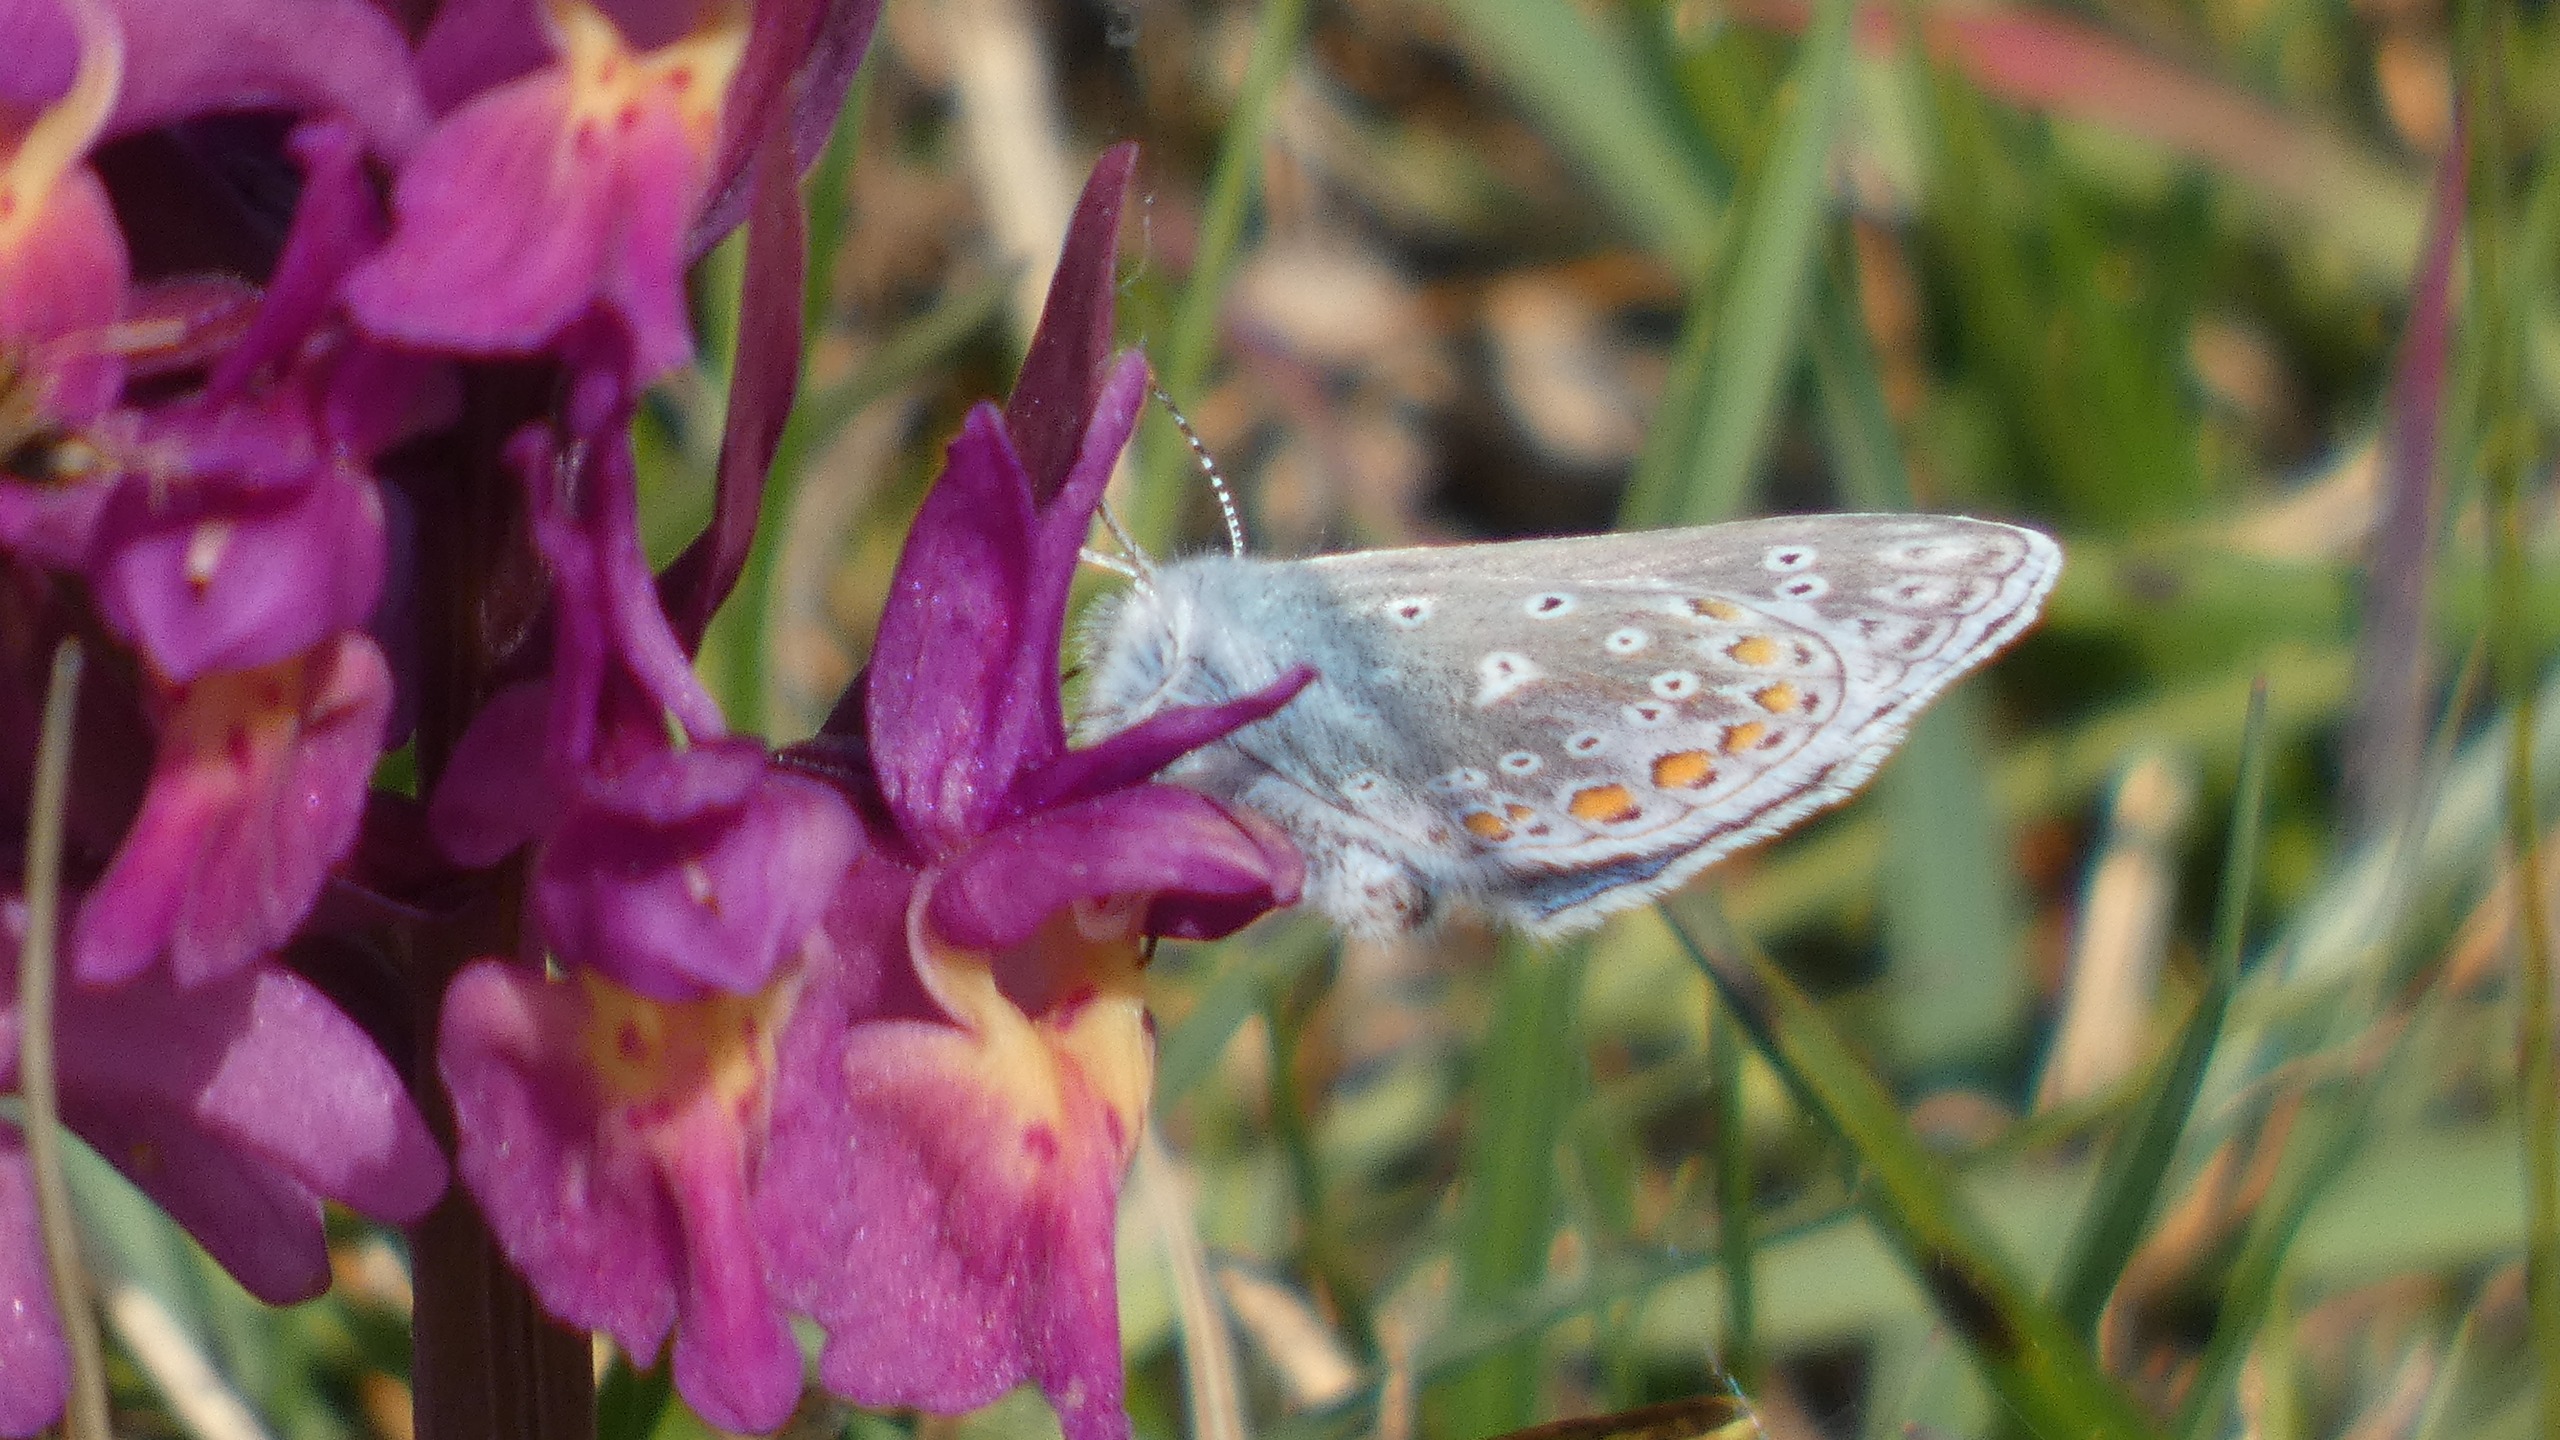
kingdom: Animalia
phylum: Arthropoda
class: Insecta
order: Lepidoptera
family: Lycaenidae
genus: Polyommatus
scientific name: Polyommatus icarus
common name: Almindelig blåfugl
